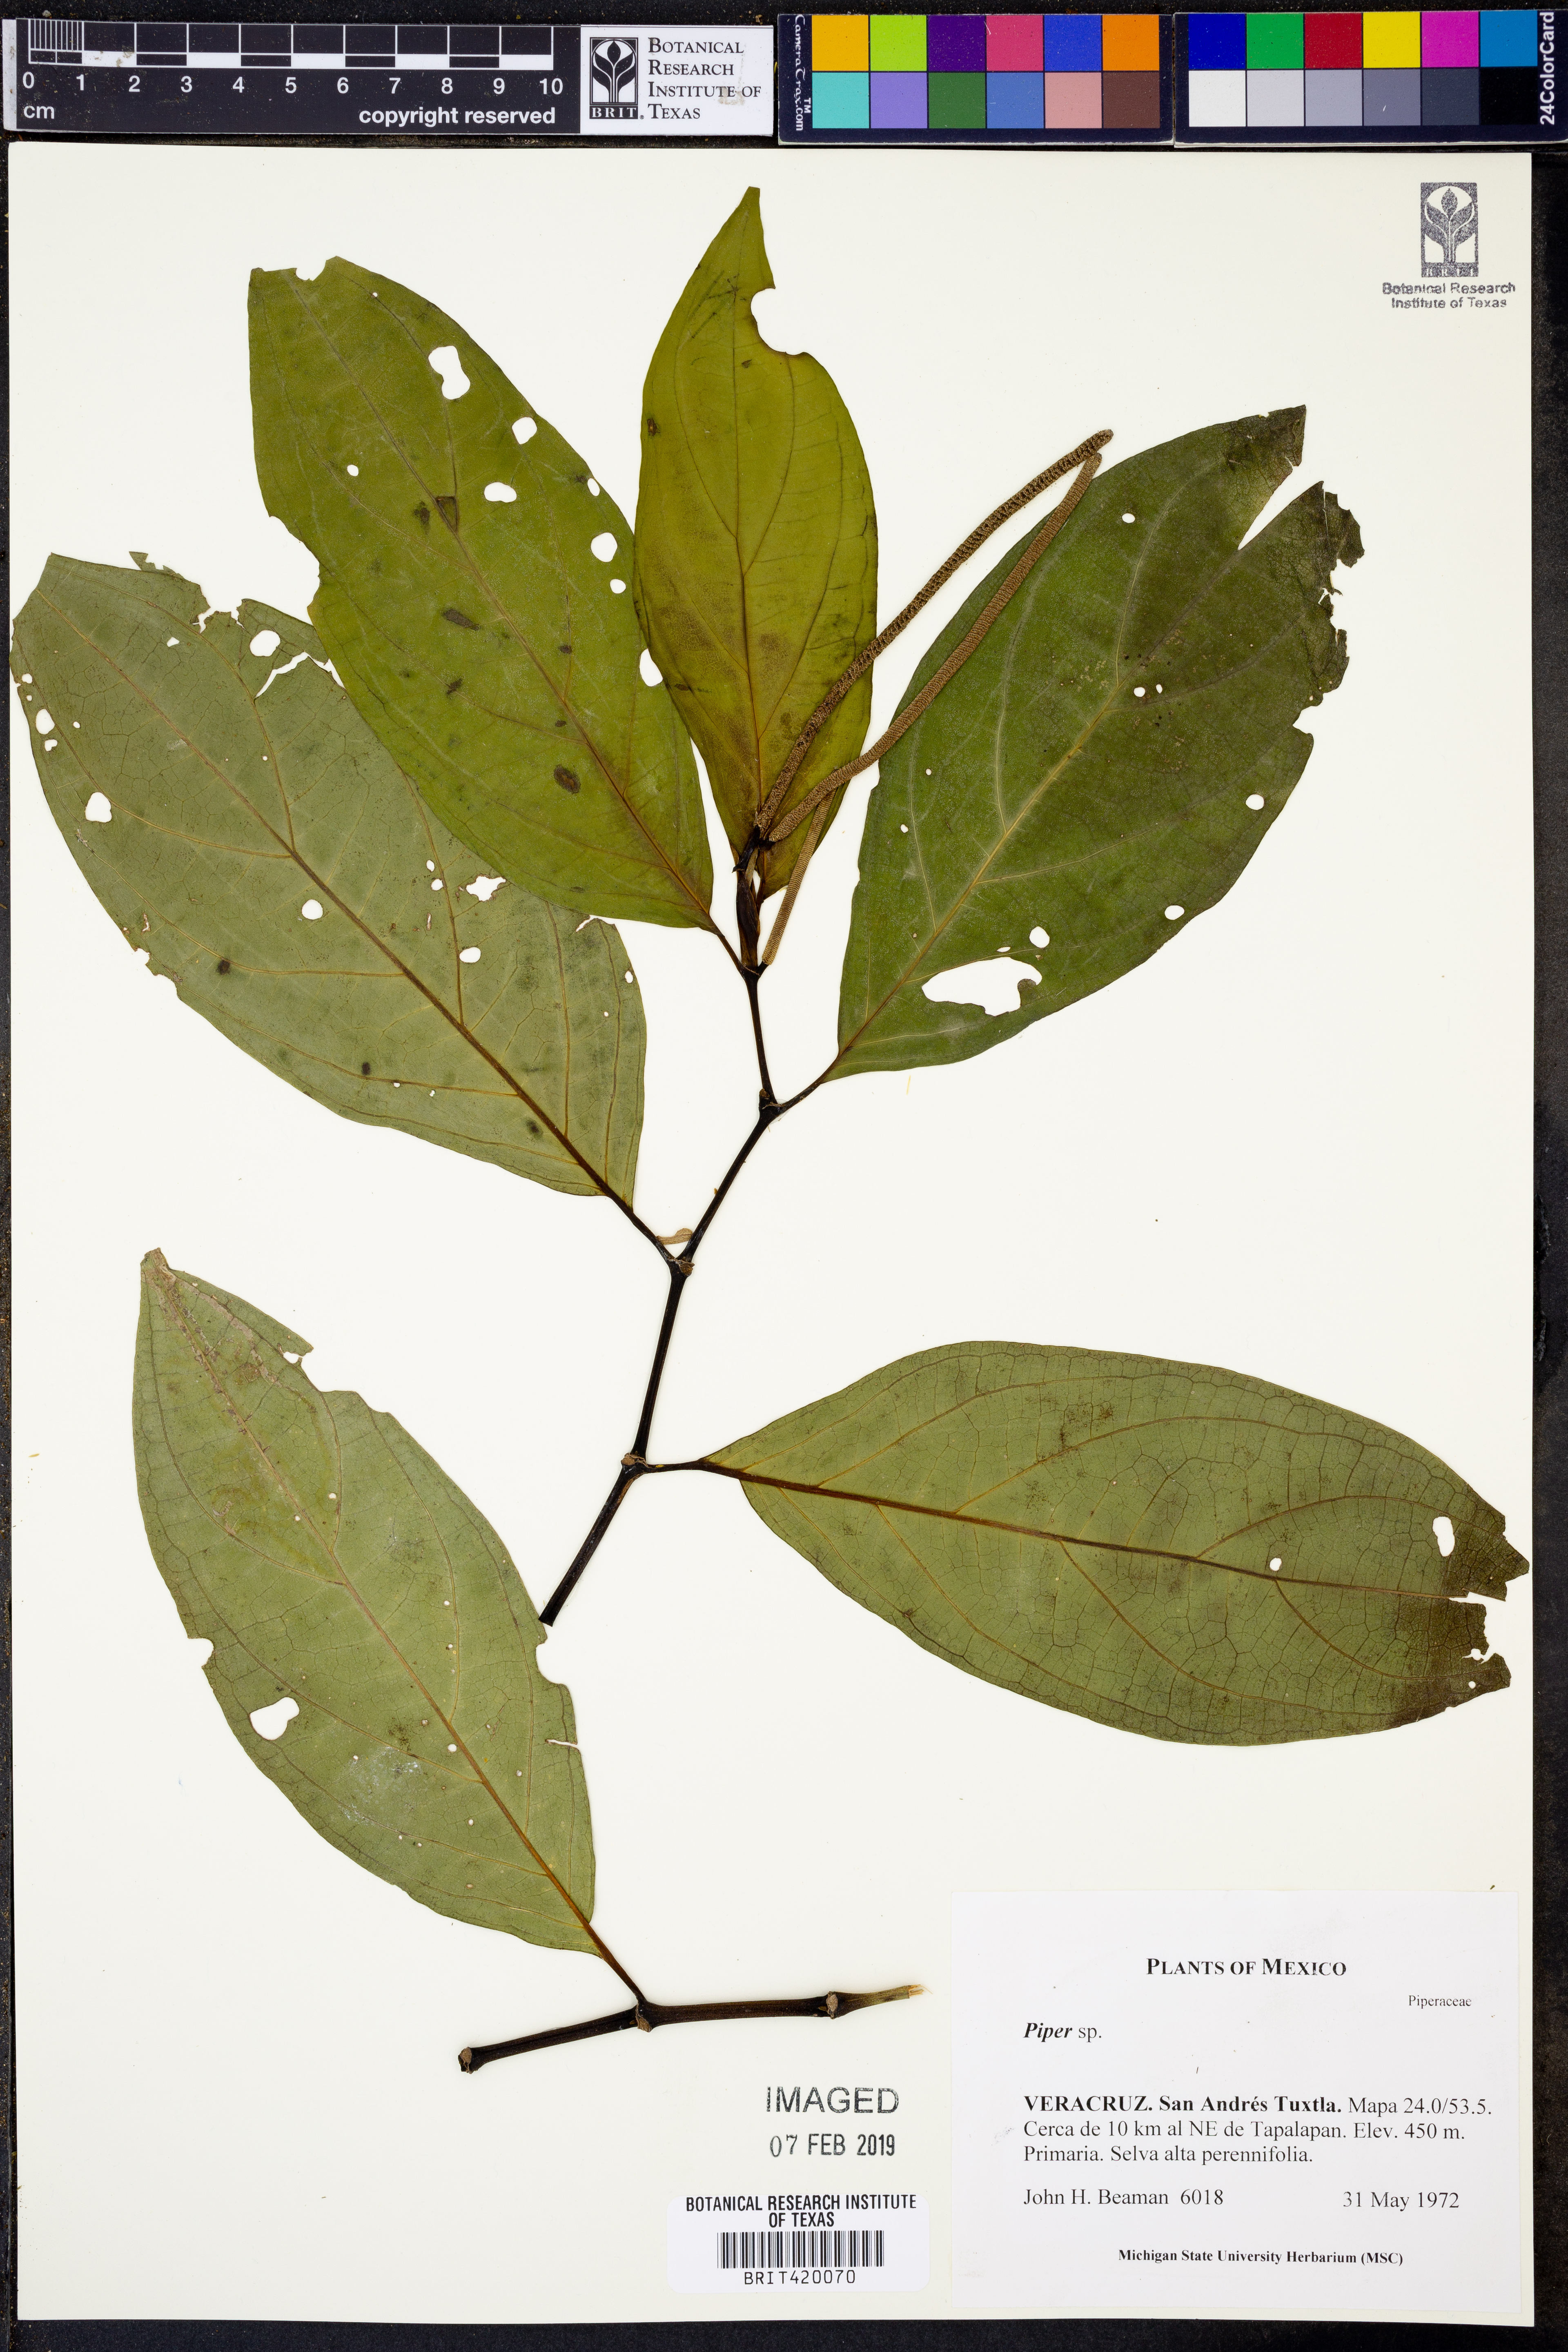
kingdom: Plantae
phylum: Tracheophyta
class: Magnoliopsida
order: Piperales
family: Piperaceae
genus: Piper
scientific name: Piper
